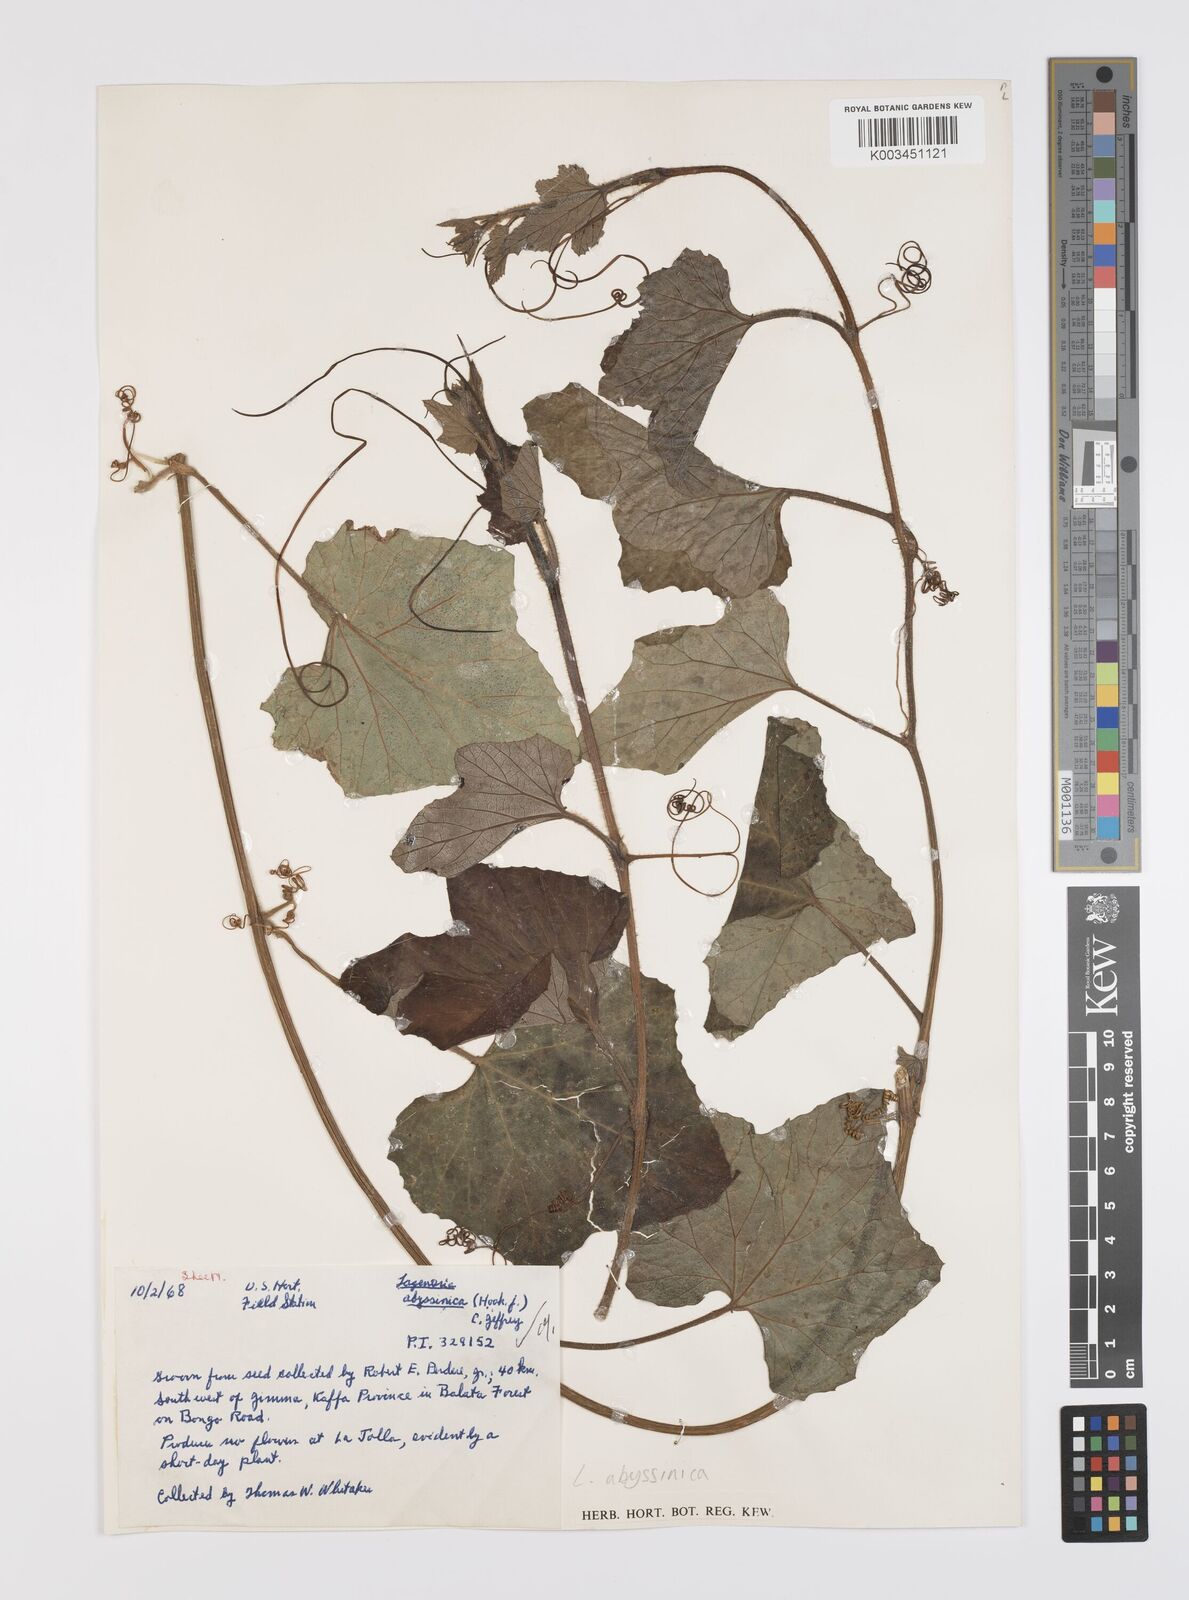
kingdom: Plantae
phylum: Tracheophyta
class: Magnoliopsida
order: Cucurbitales
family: Cucurbitaceae
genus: Lagenaria
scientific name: Lagenaria abyssinica
